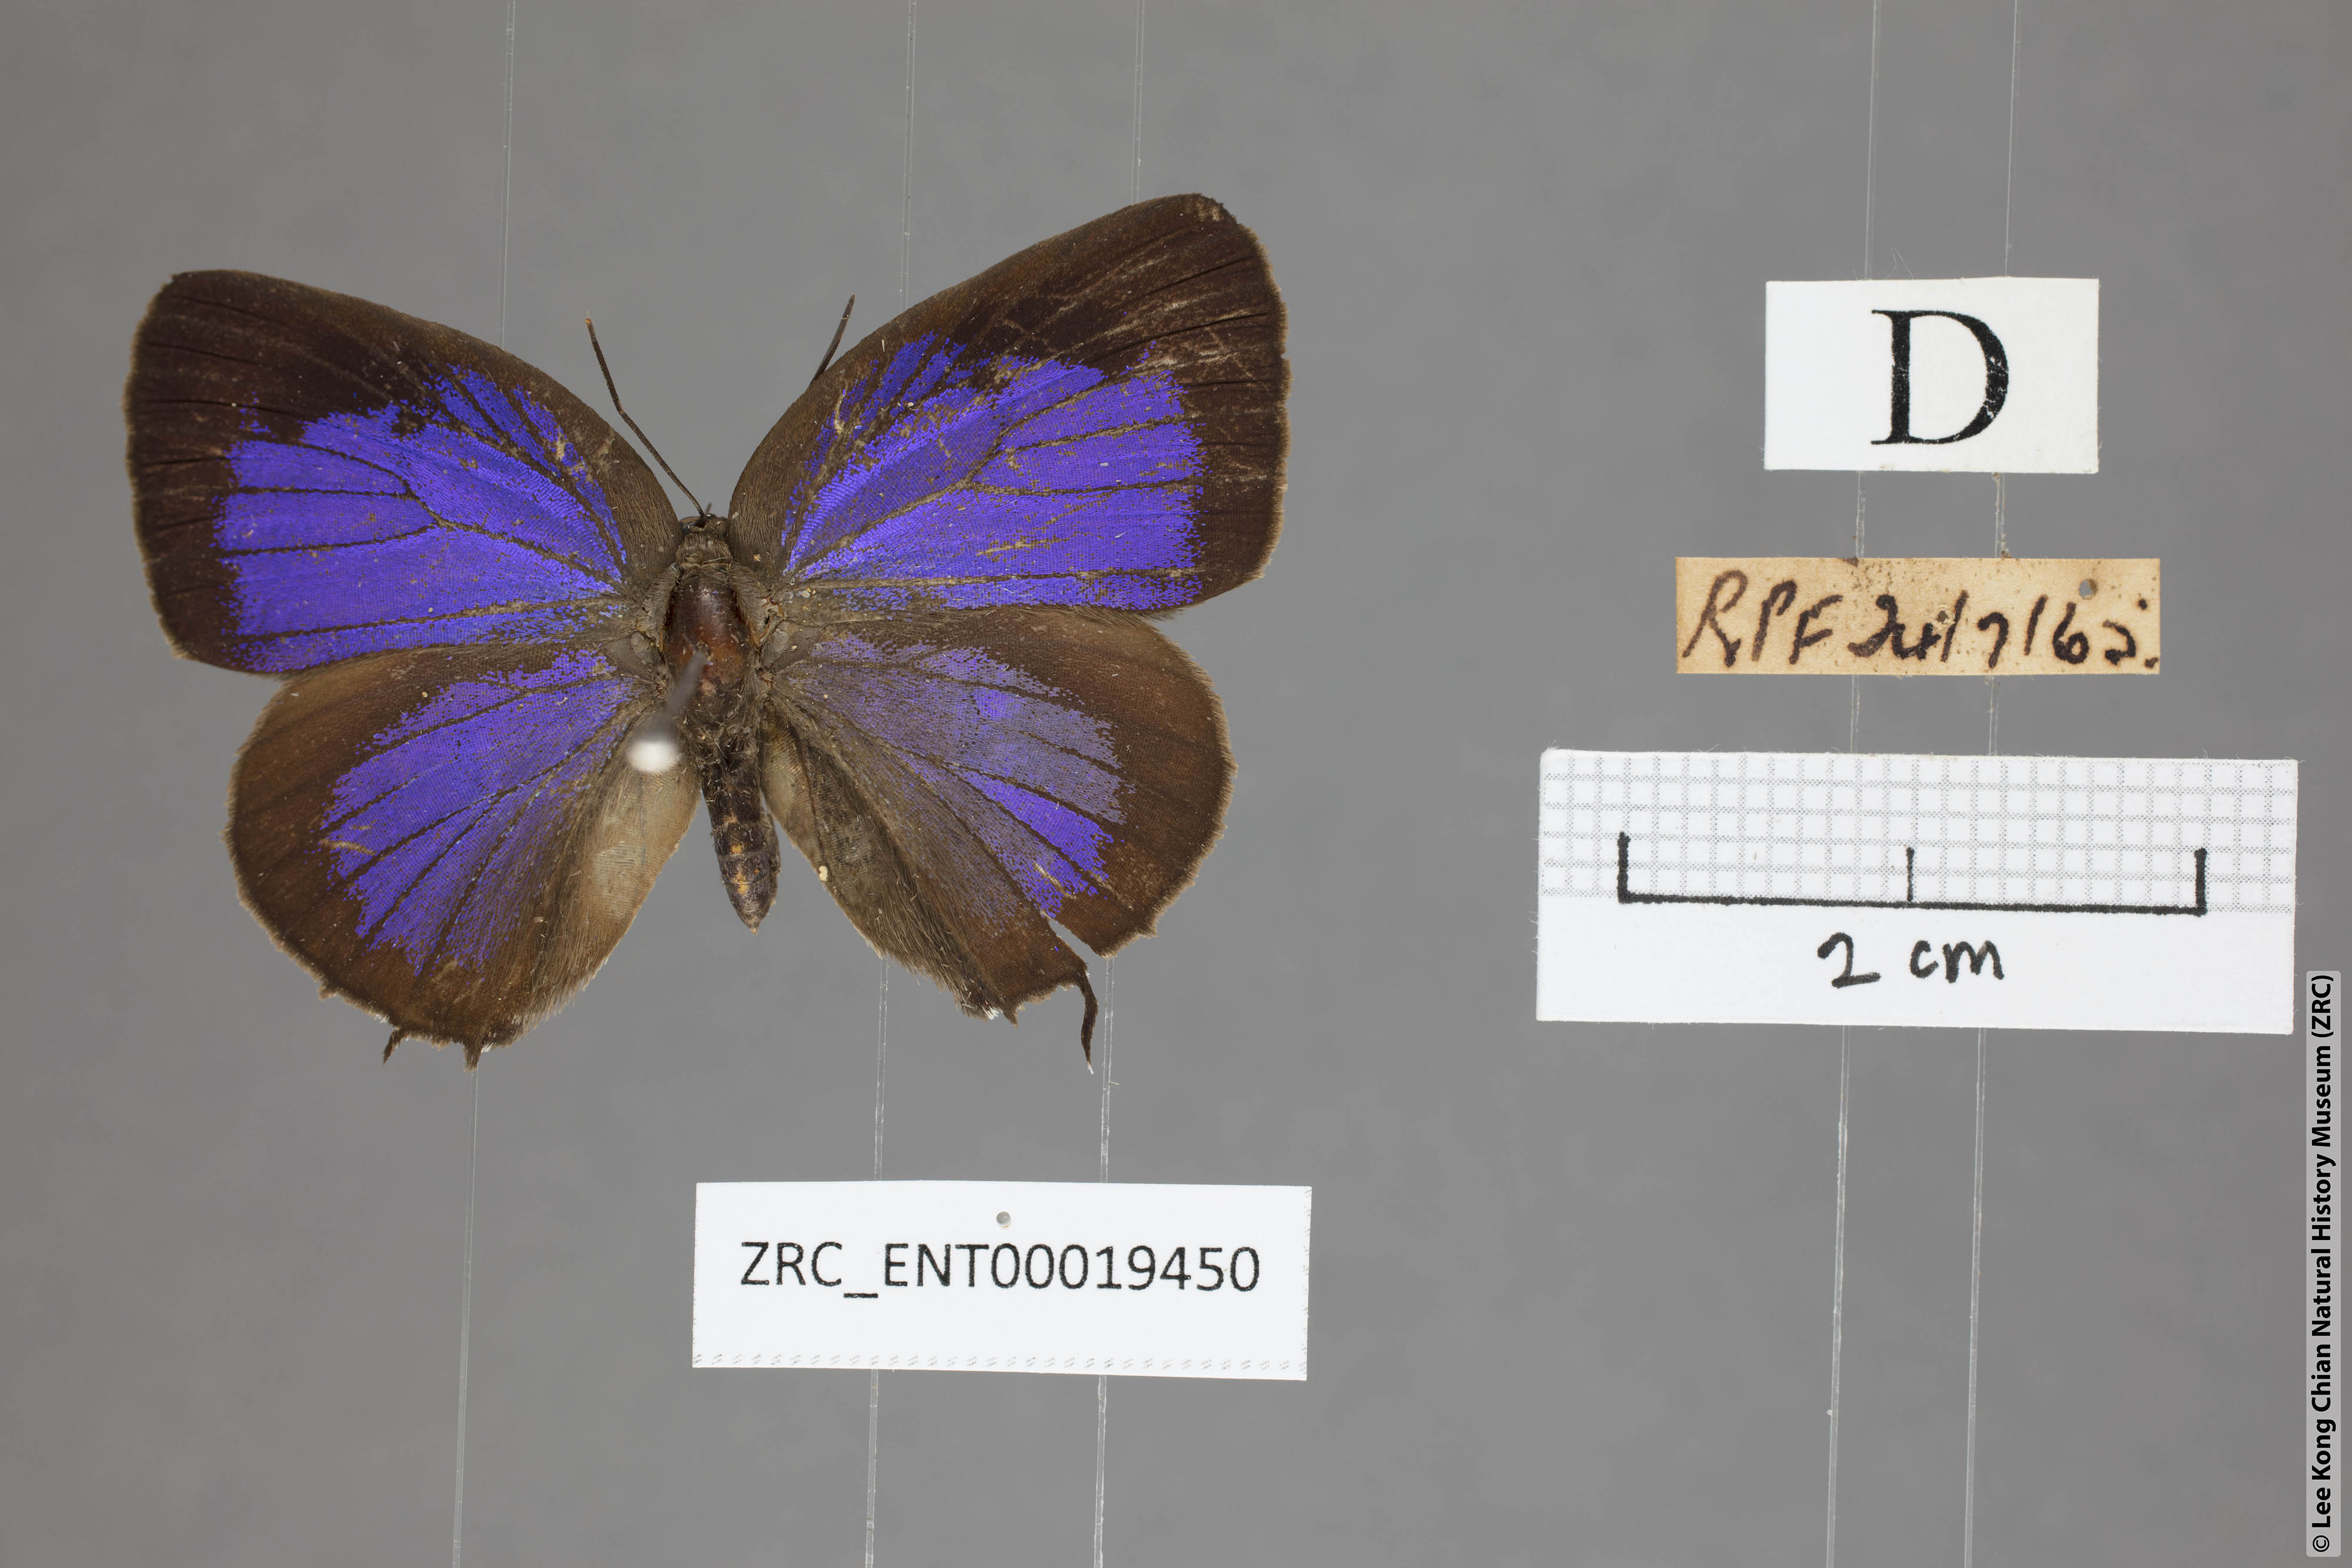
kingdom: Animalia
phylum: Arthropoda
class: Insecta
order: Lepidoptera
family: Lycaenidae
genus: Arhopala
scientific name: Arhopala eumolphus
